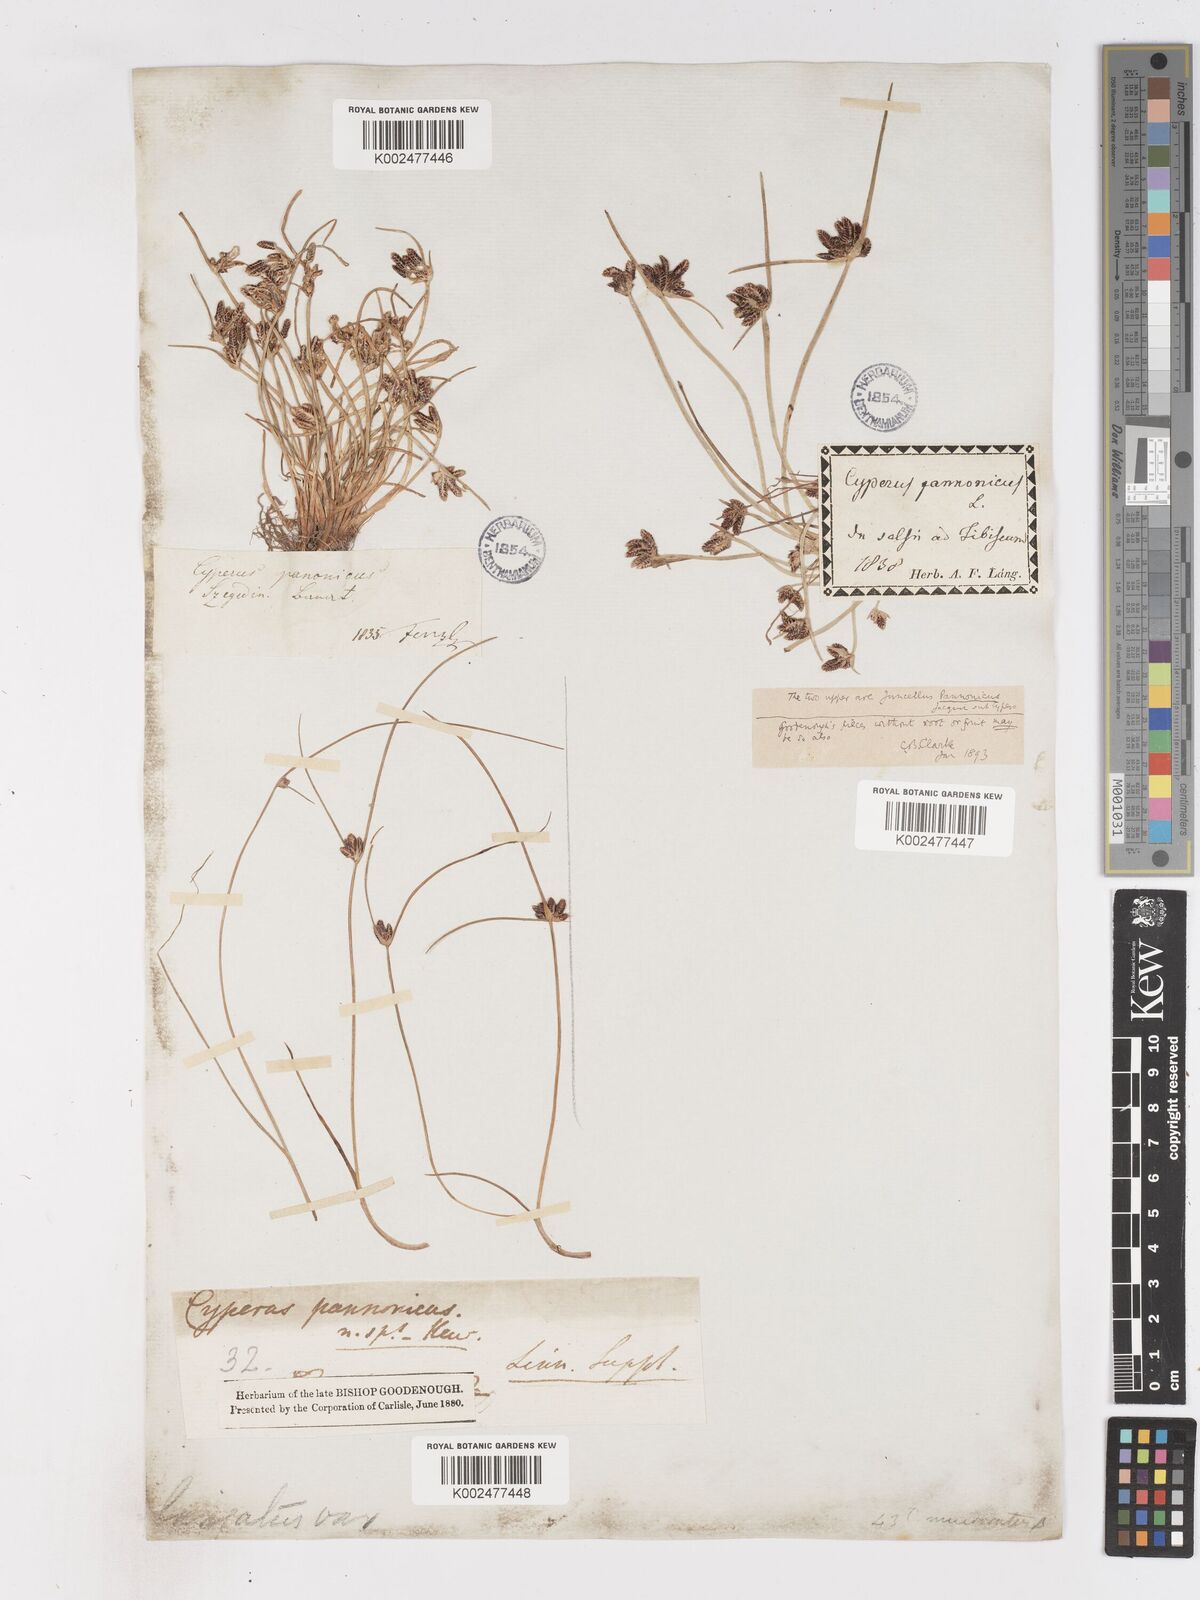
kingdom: Plantae
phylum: Tracheophyta
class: Liliopsida
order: Poales
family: Cyperaceae
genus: Cyperus
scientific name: Cyperus pannonicus
